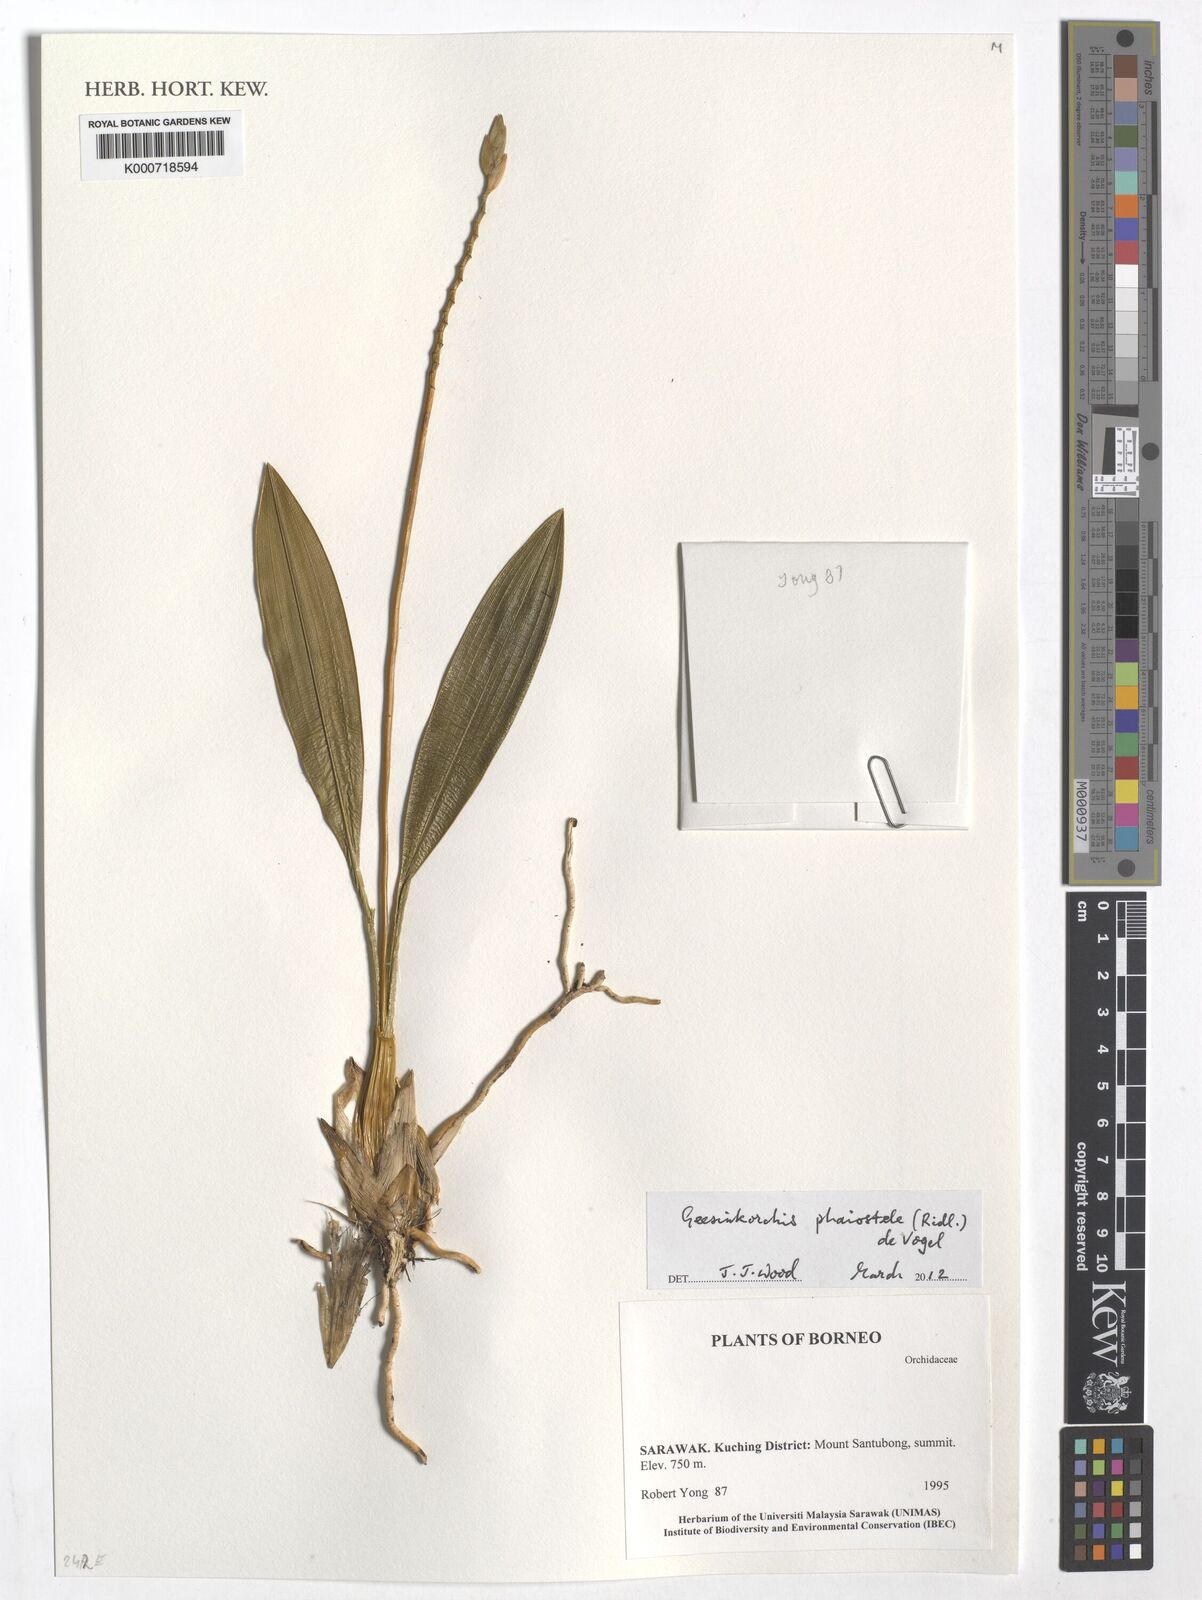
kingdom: Plantae
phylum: Tracheophyta
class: Liliopsida
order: Asparagales
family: Orchidaceae
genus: Coelogyne
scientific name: Coelogyne phaiostele
